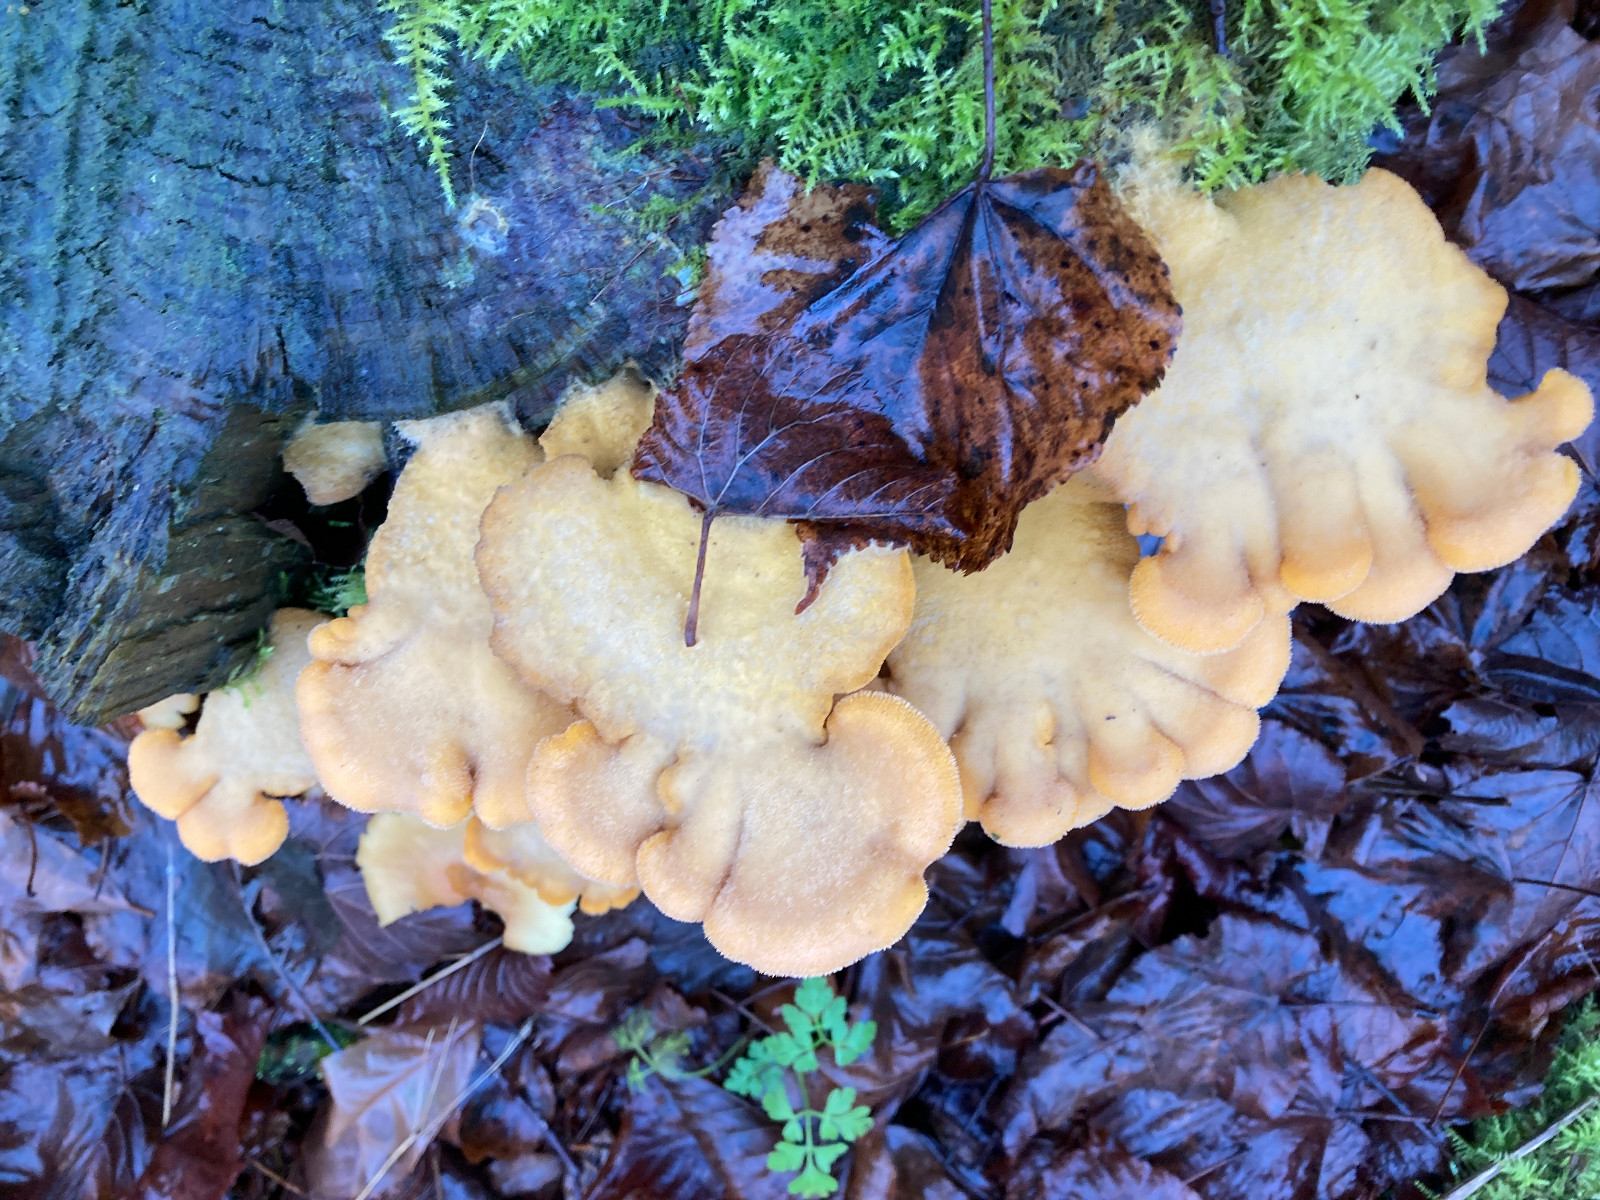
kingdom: Fungi
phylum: Basidiomycota
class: Agaricomycetes
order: Boletales
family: Tapinellaceae
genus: Tapinella
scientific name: Tapinella panuoides
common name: tømmer-viftesvamp
